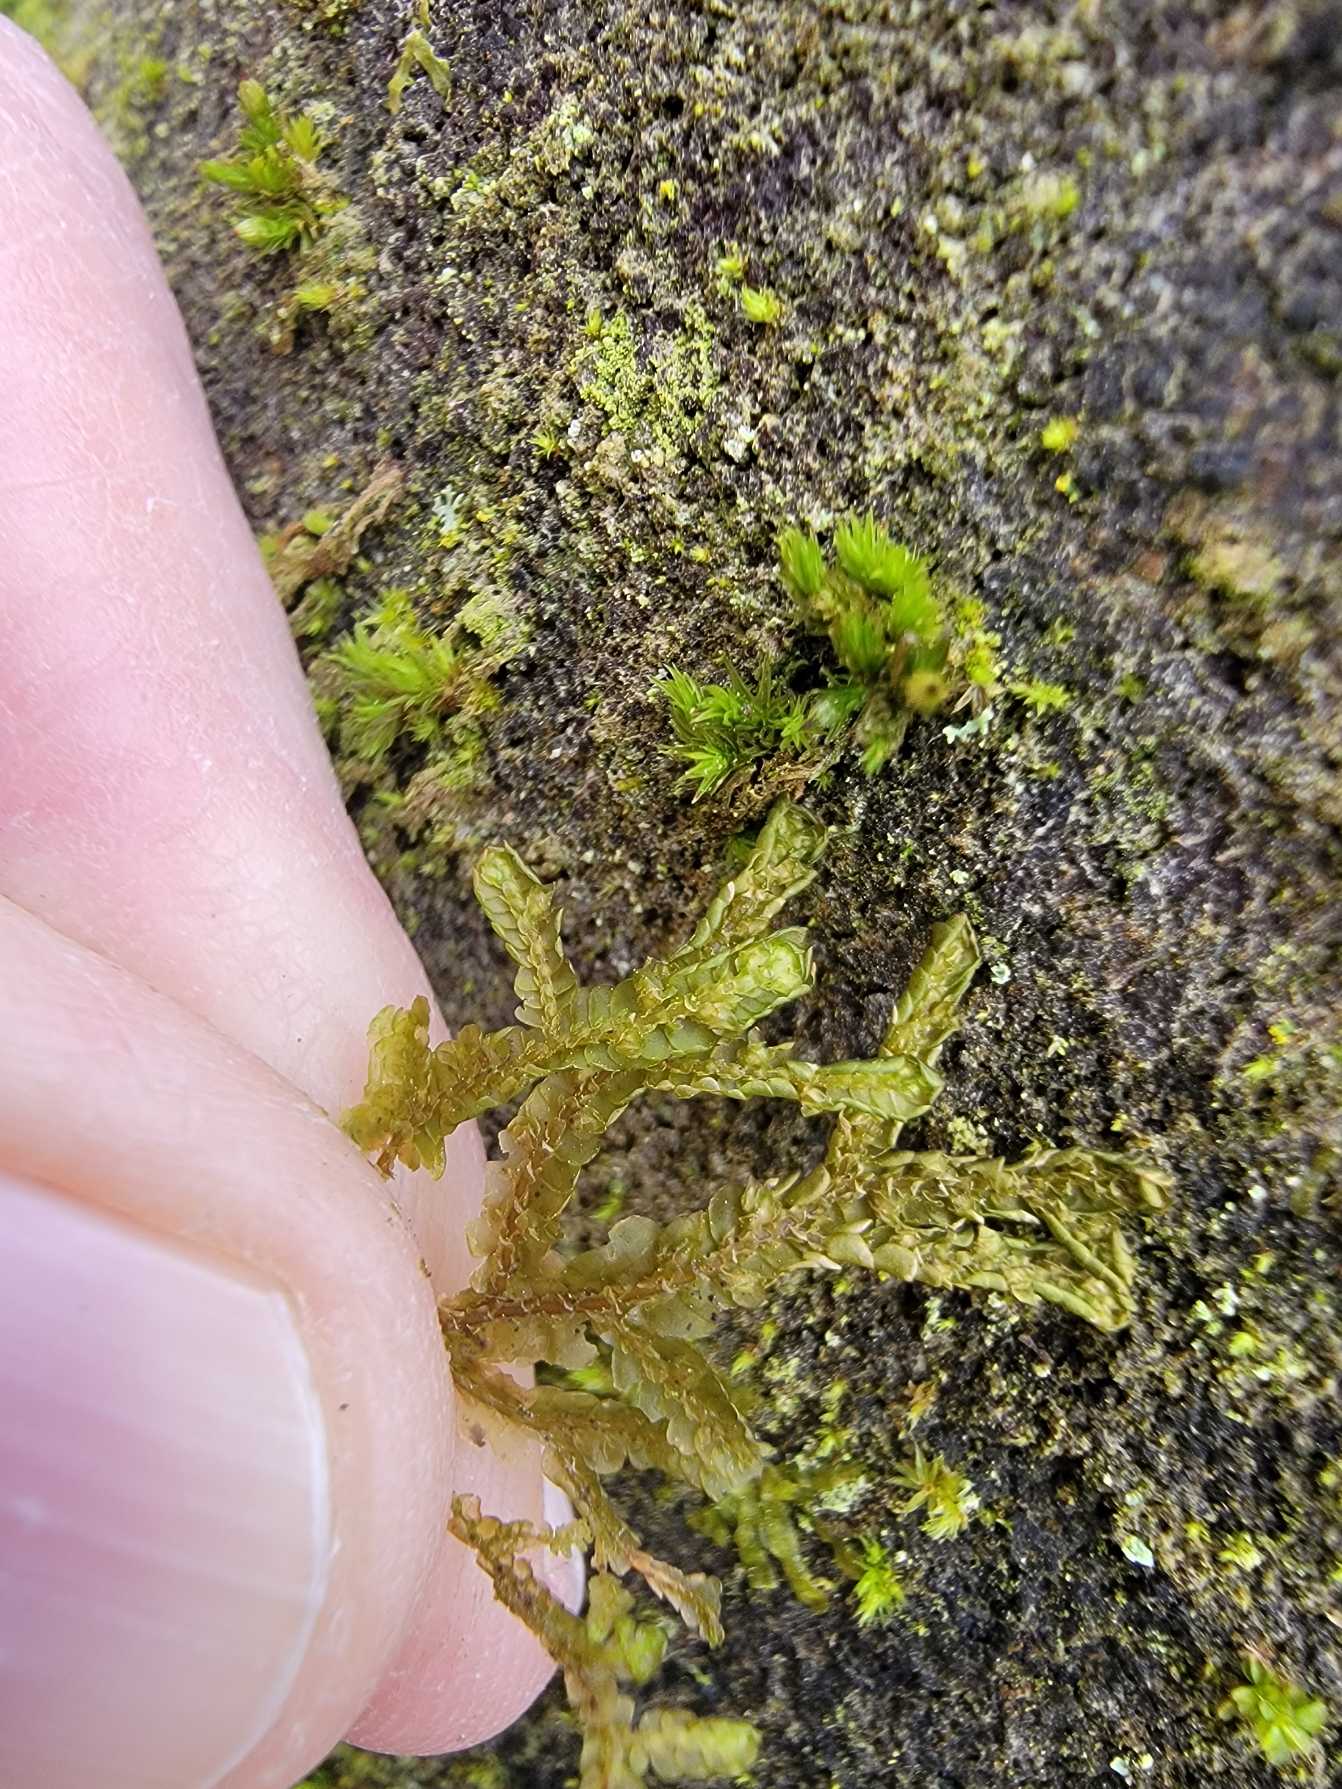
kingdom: Plantae
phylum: Marchantiophyta
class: Jungermanniopsida
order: Porellales
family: Porellaceae
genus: Porella
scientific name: Porella platyphylla
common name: Almindelig skælryg
